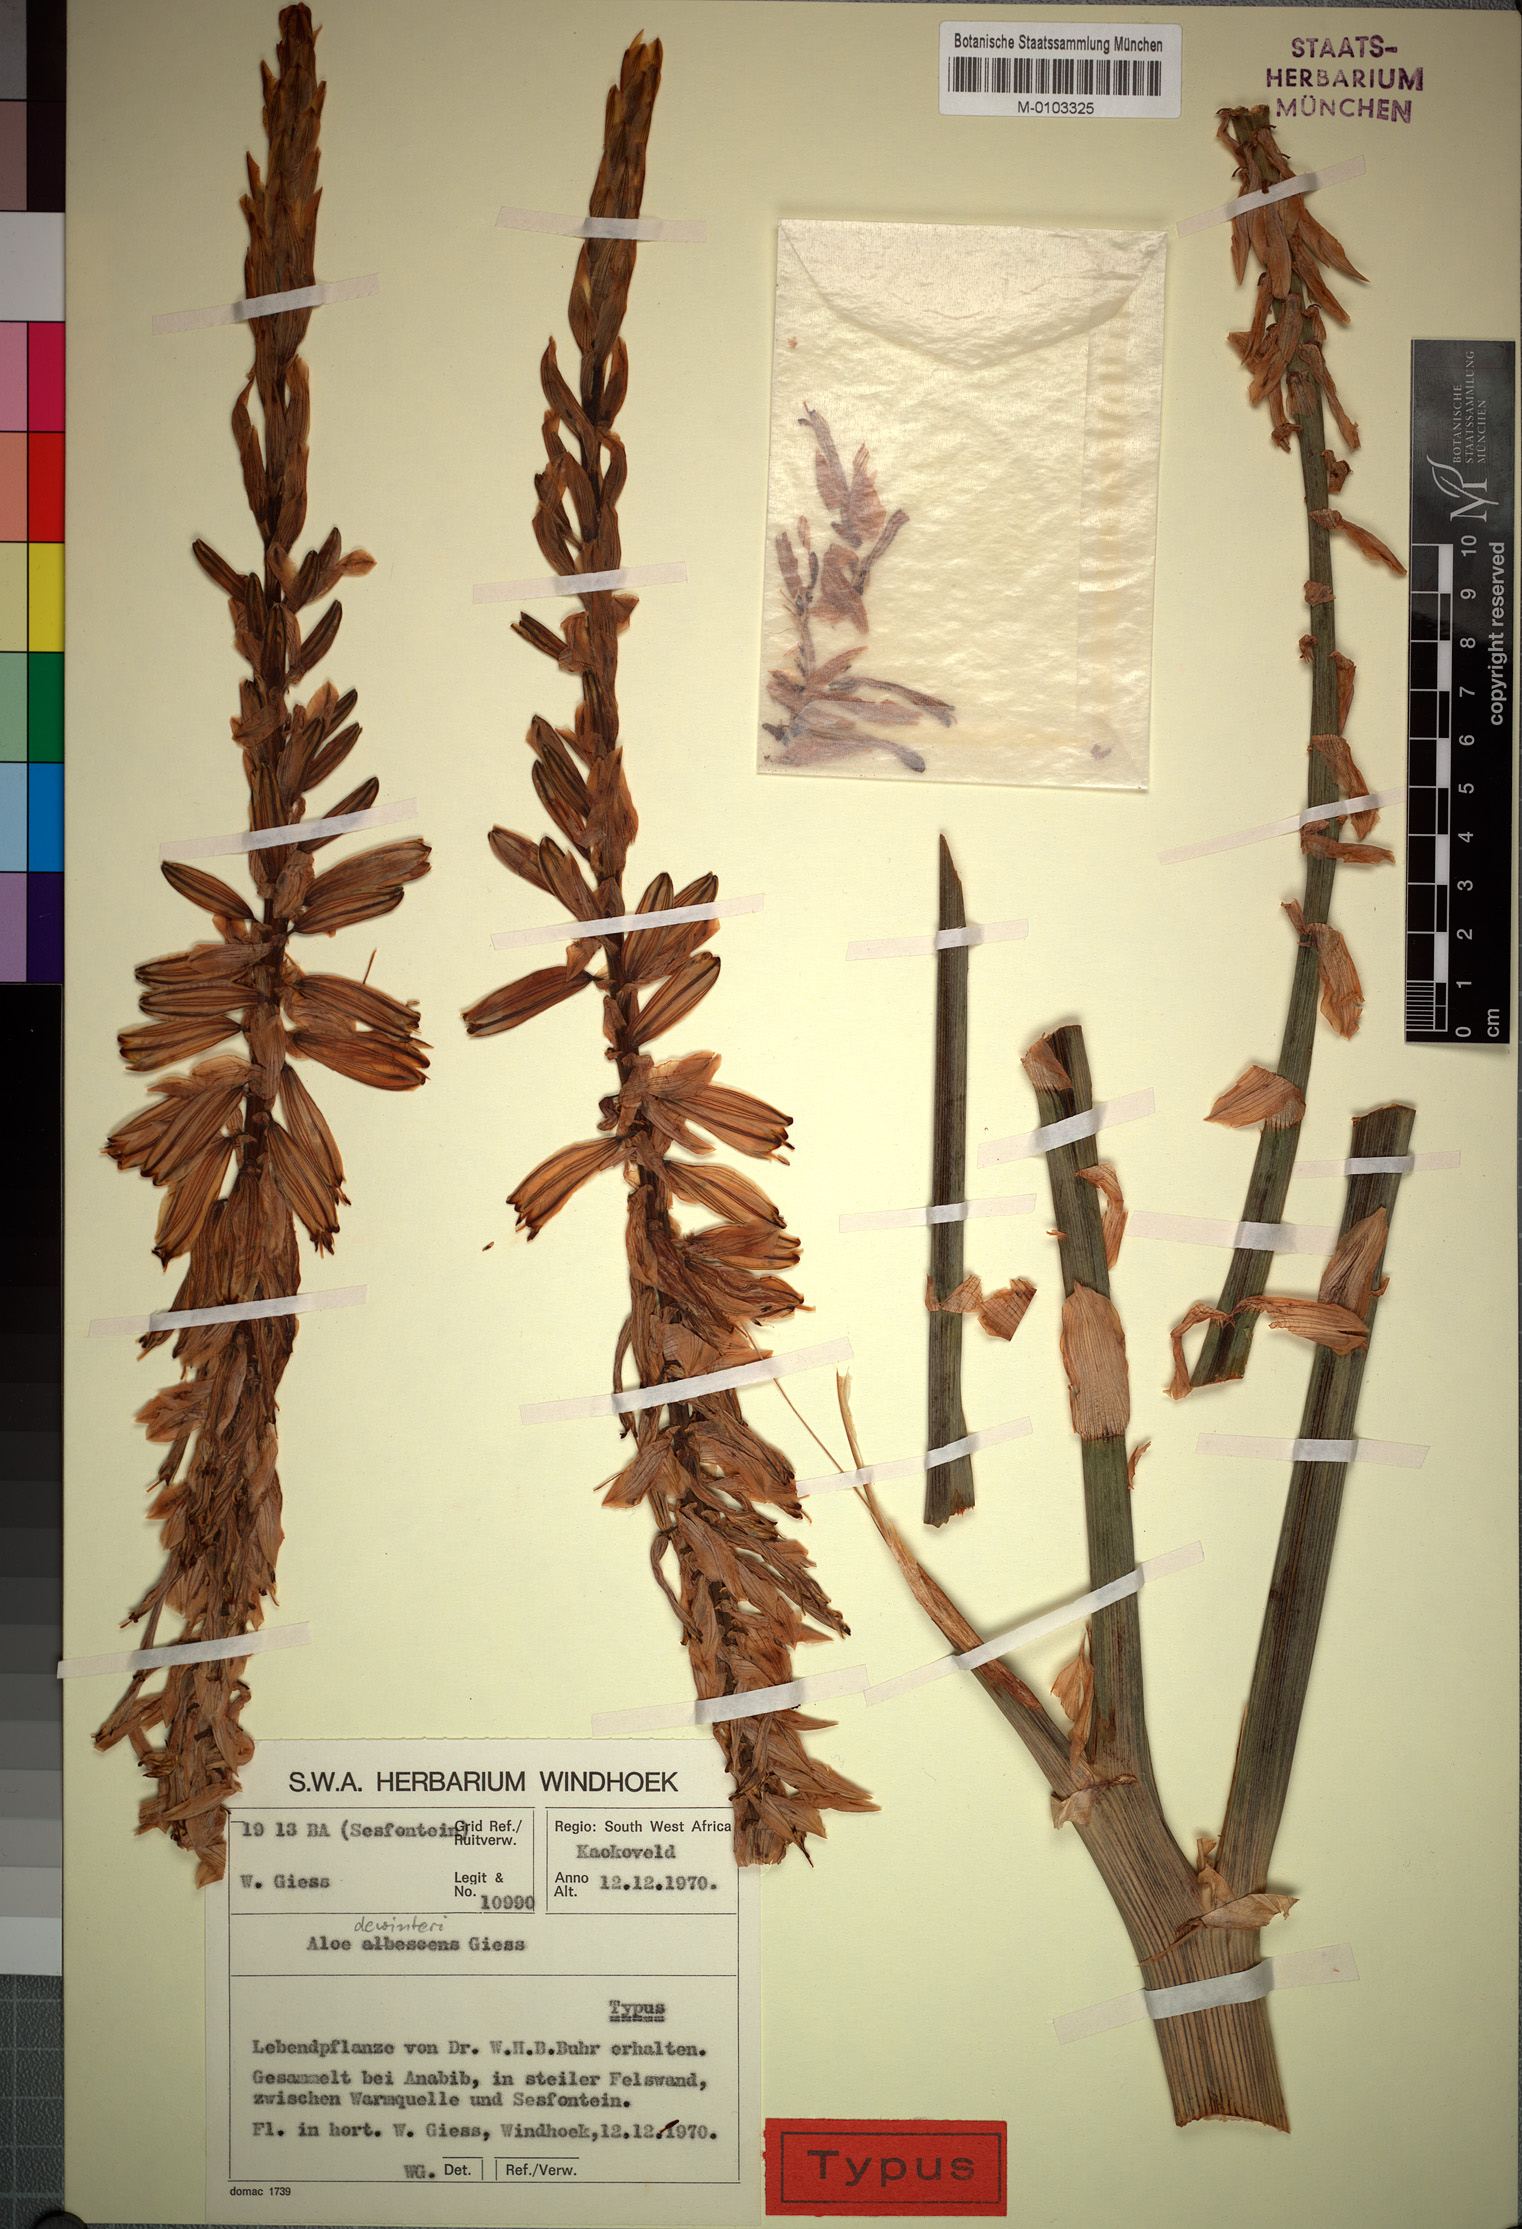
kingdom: Plantae
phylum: Tracheophyta
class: Liliopsida
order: Asparagales
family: Asphodelaceae
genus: Aloe
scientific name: Aloe dewinteri
